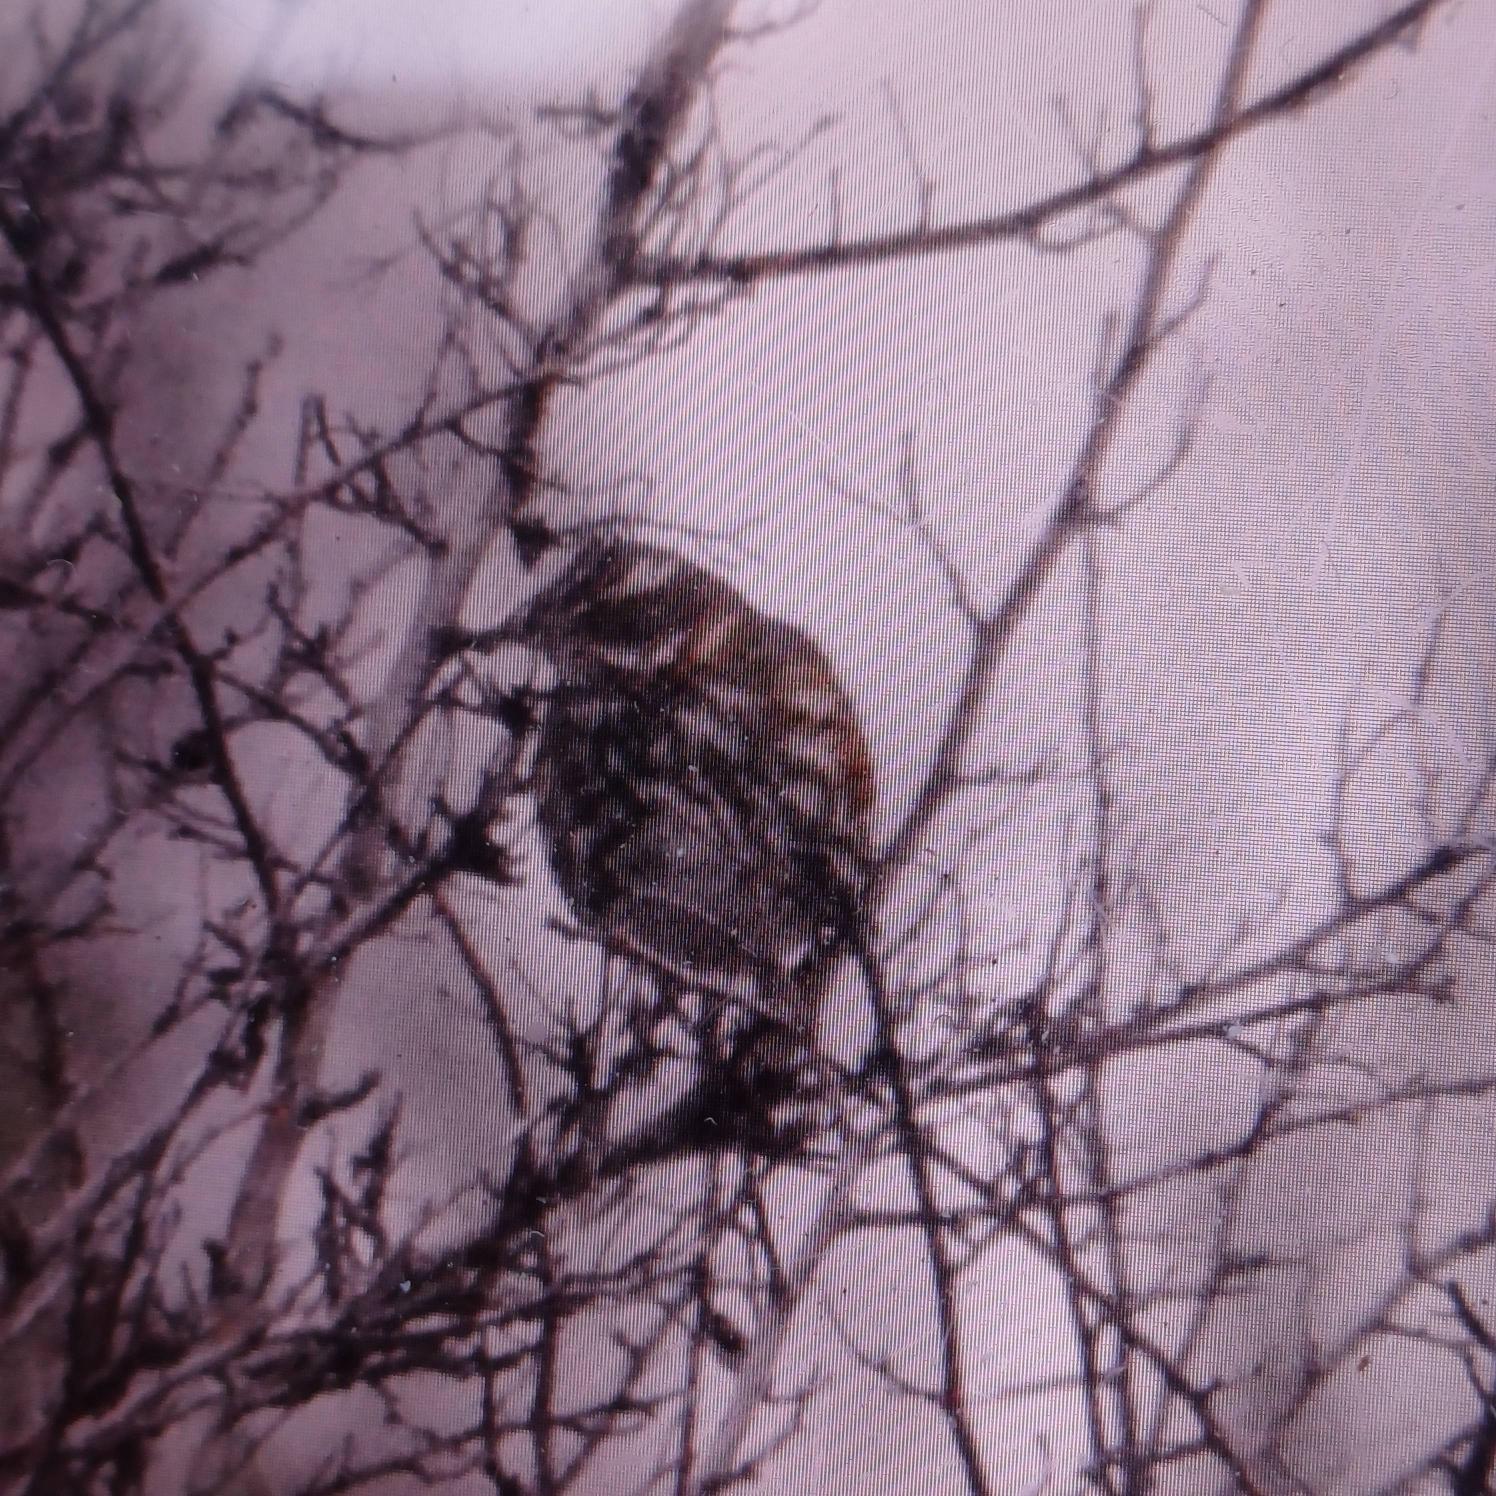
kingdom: Animalia
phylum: Chordata
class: Aves
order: Passeriformes
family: Turdidae
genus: Turdus
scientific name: Turdus iliacus
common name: Vindrossel
